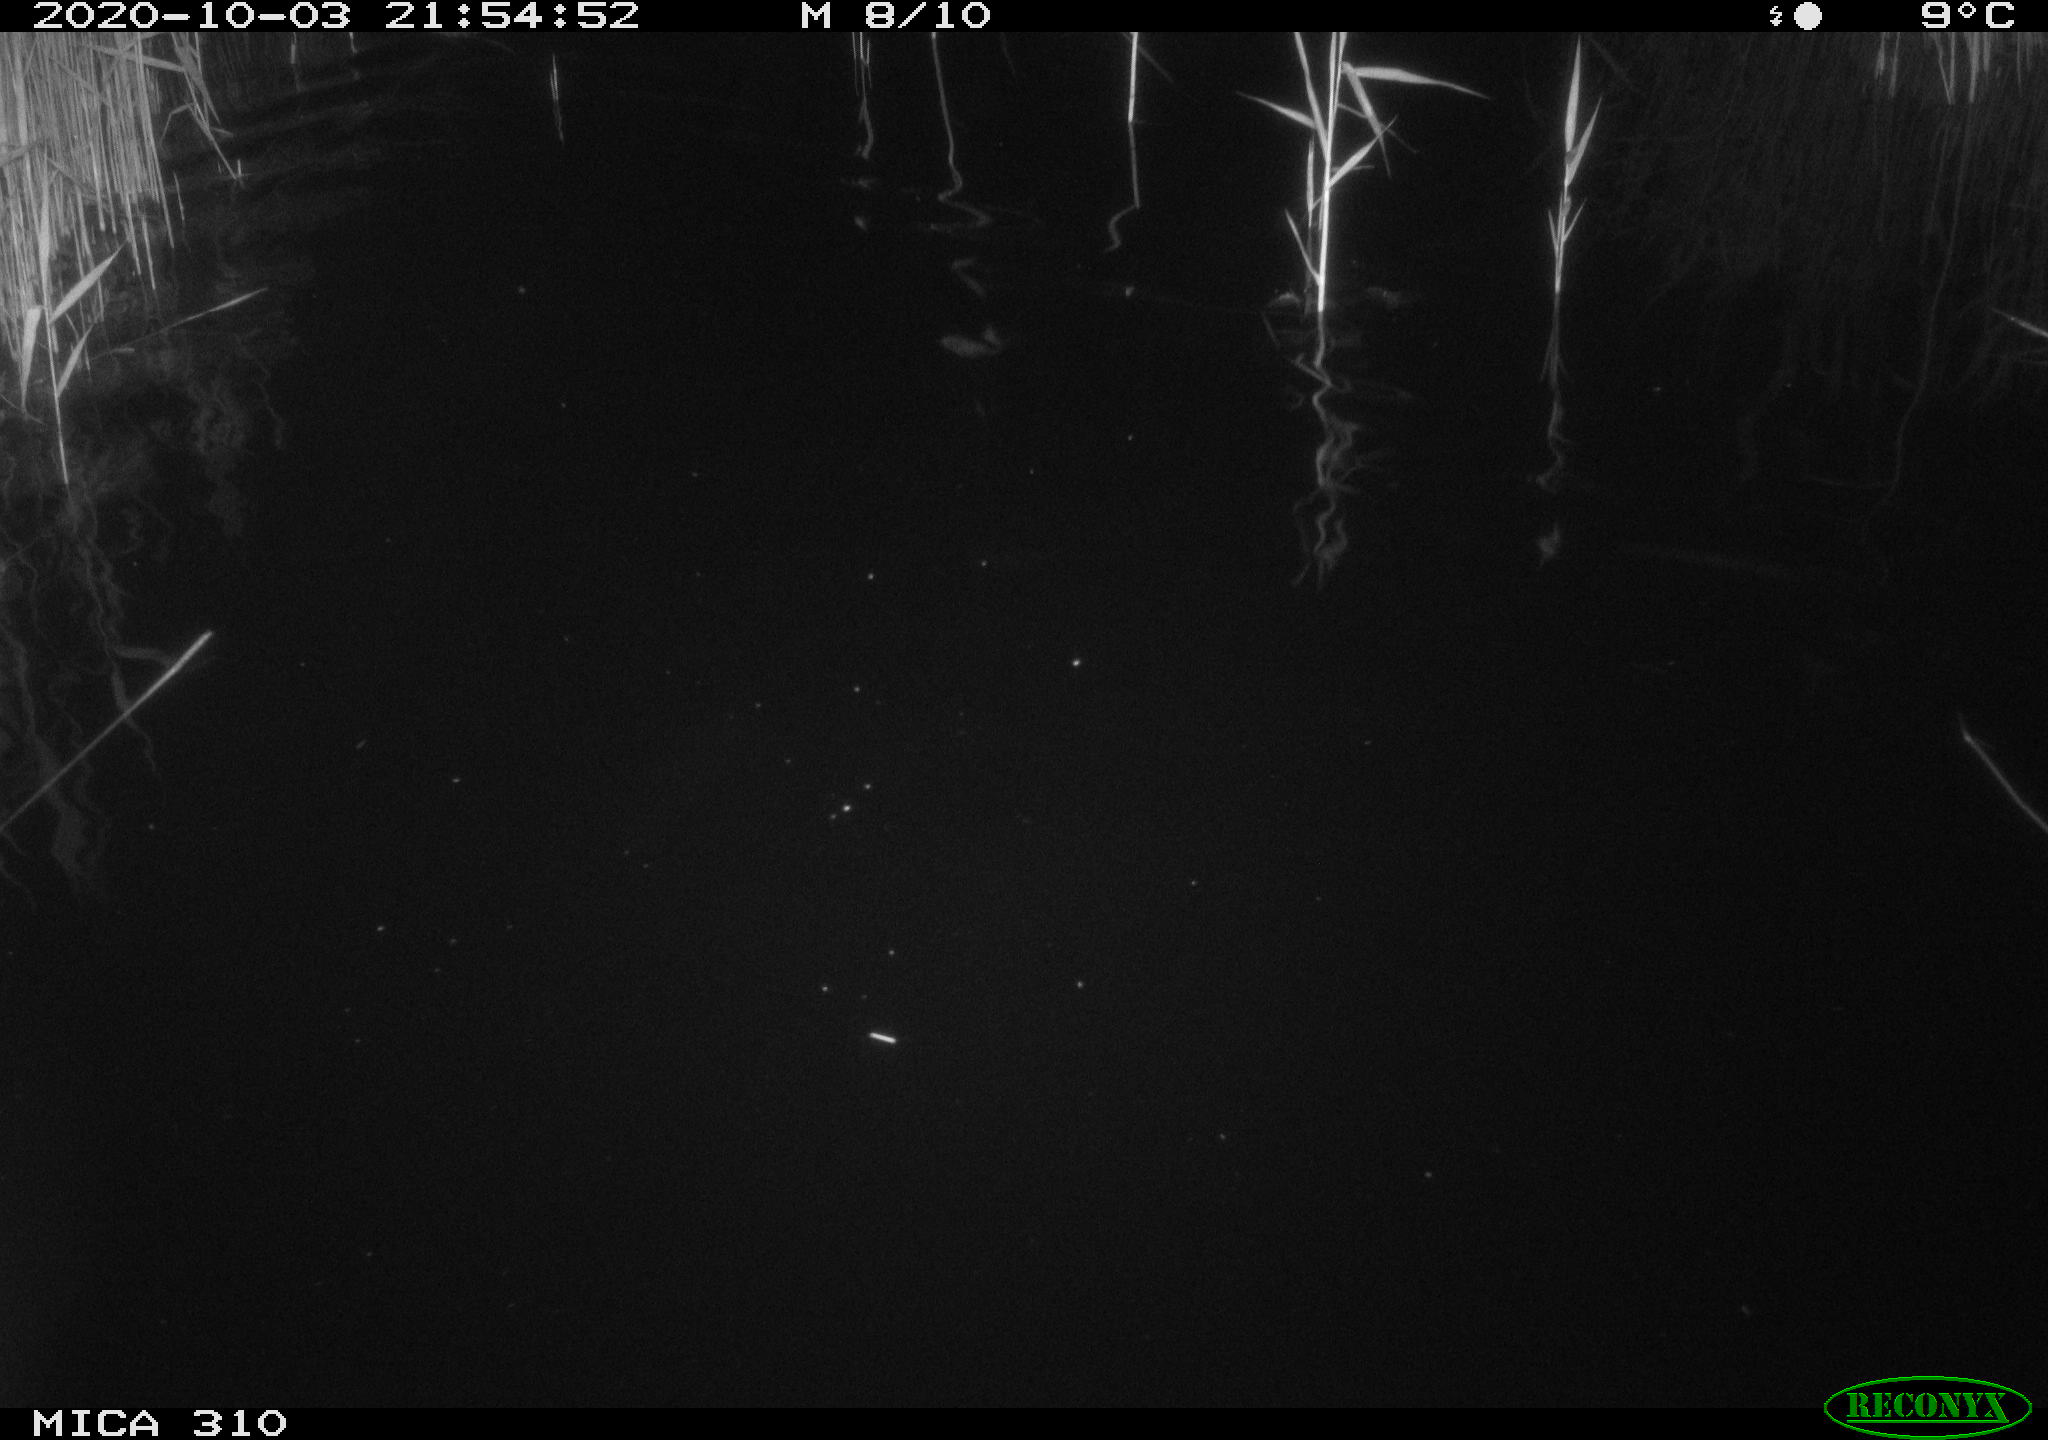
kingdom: Animalia
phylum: Chordata
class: Mammalia
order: Rodentia
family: Cricetidae
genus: Ondatra
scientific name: Ondatra zibethicus
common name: Muskrat
